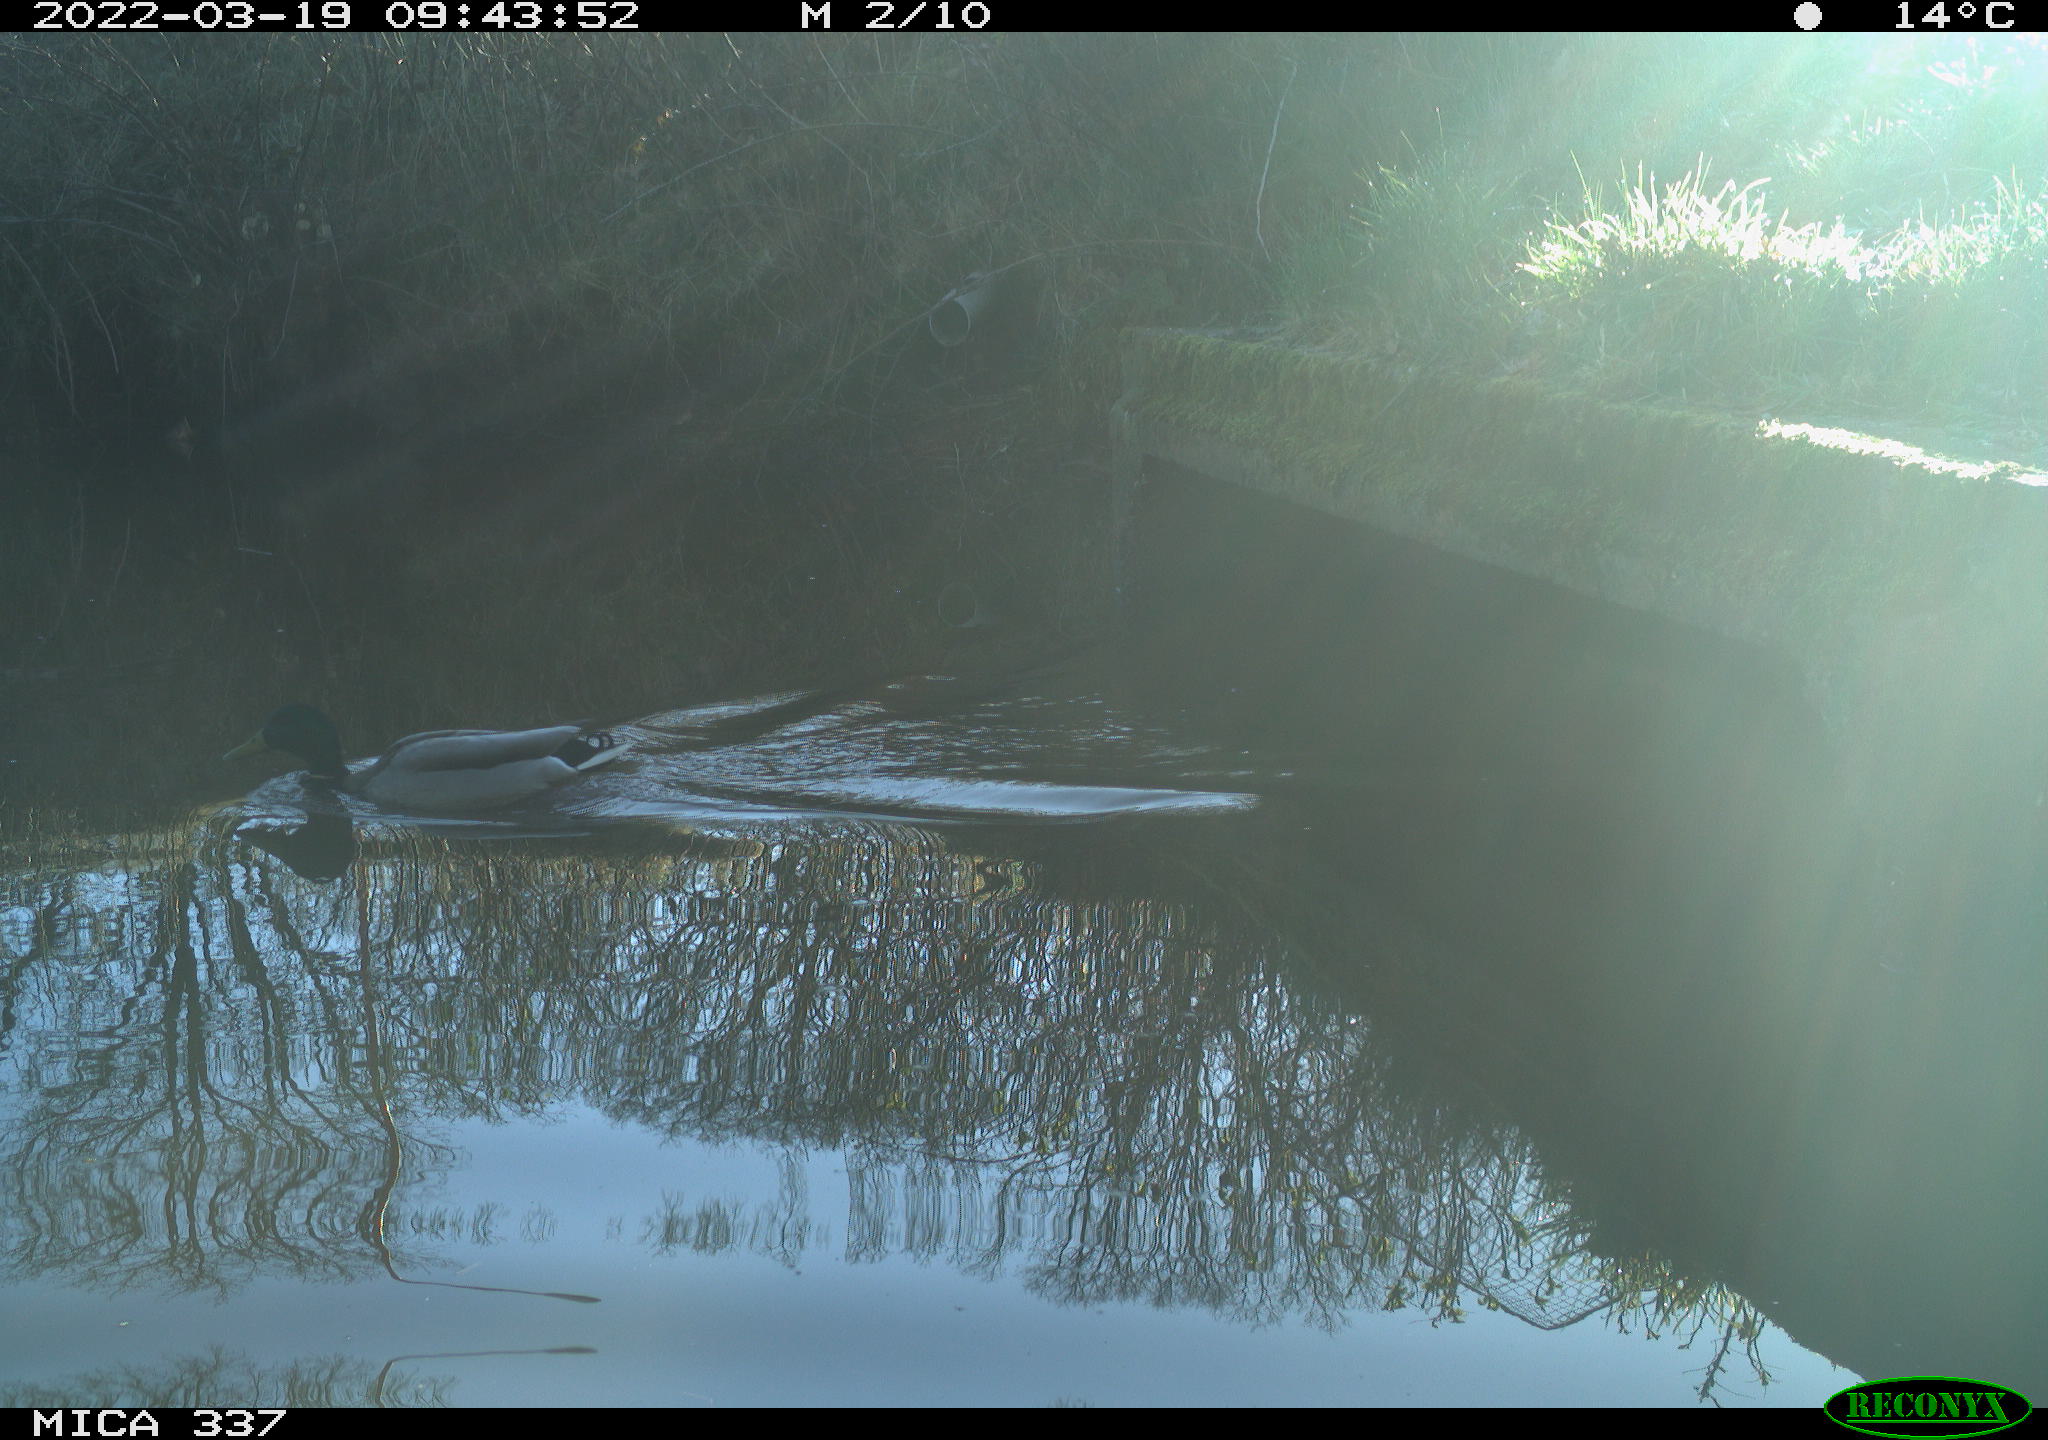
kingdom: Animalia
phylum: Chordata
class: Aves
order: Anseriformes
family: Anatidae
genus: Anas
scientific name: Anas platyrhynchos
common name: Mallard
